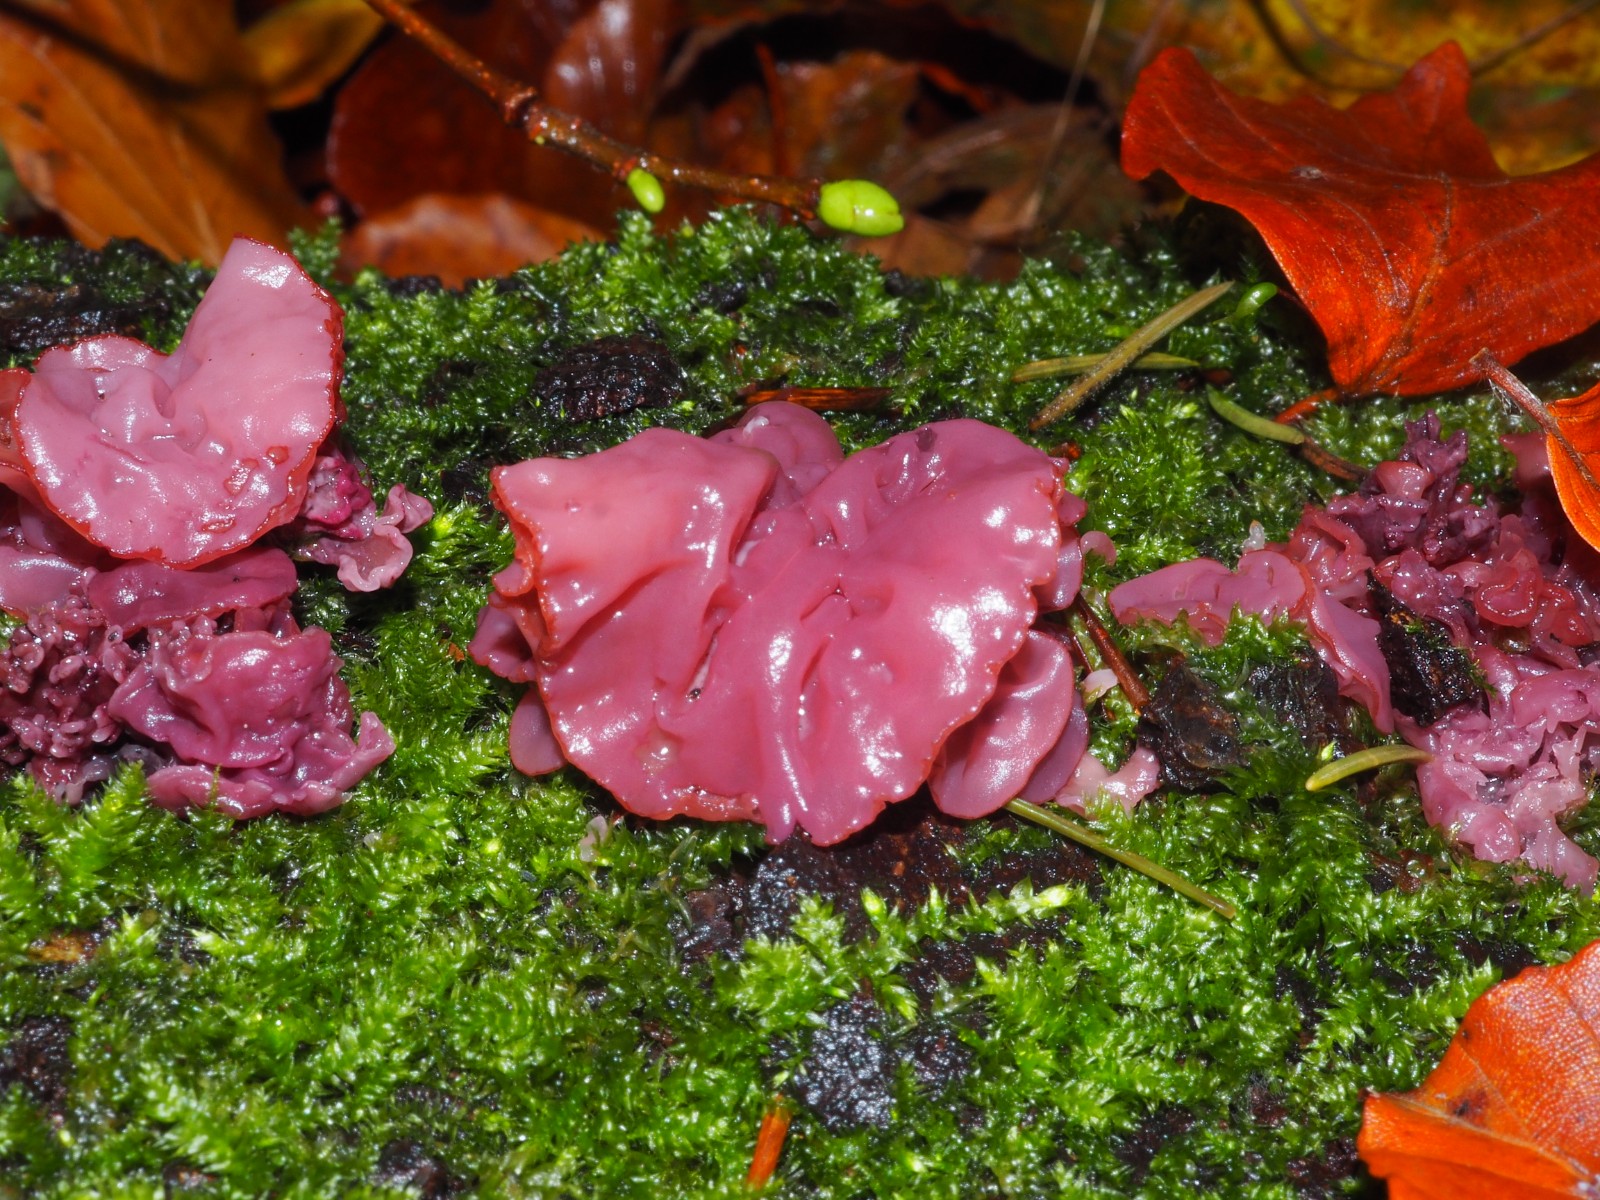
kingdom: Fungi
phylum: Ascomycota
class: Leotiomycetes
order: Helotiales
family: Gelatinodiscaceae
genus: Ascocoryne
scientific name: Ascocoryne cylichnium
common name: stor sejskive
